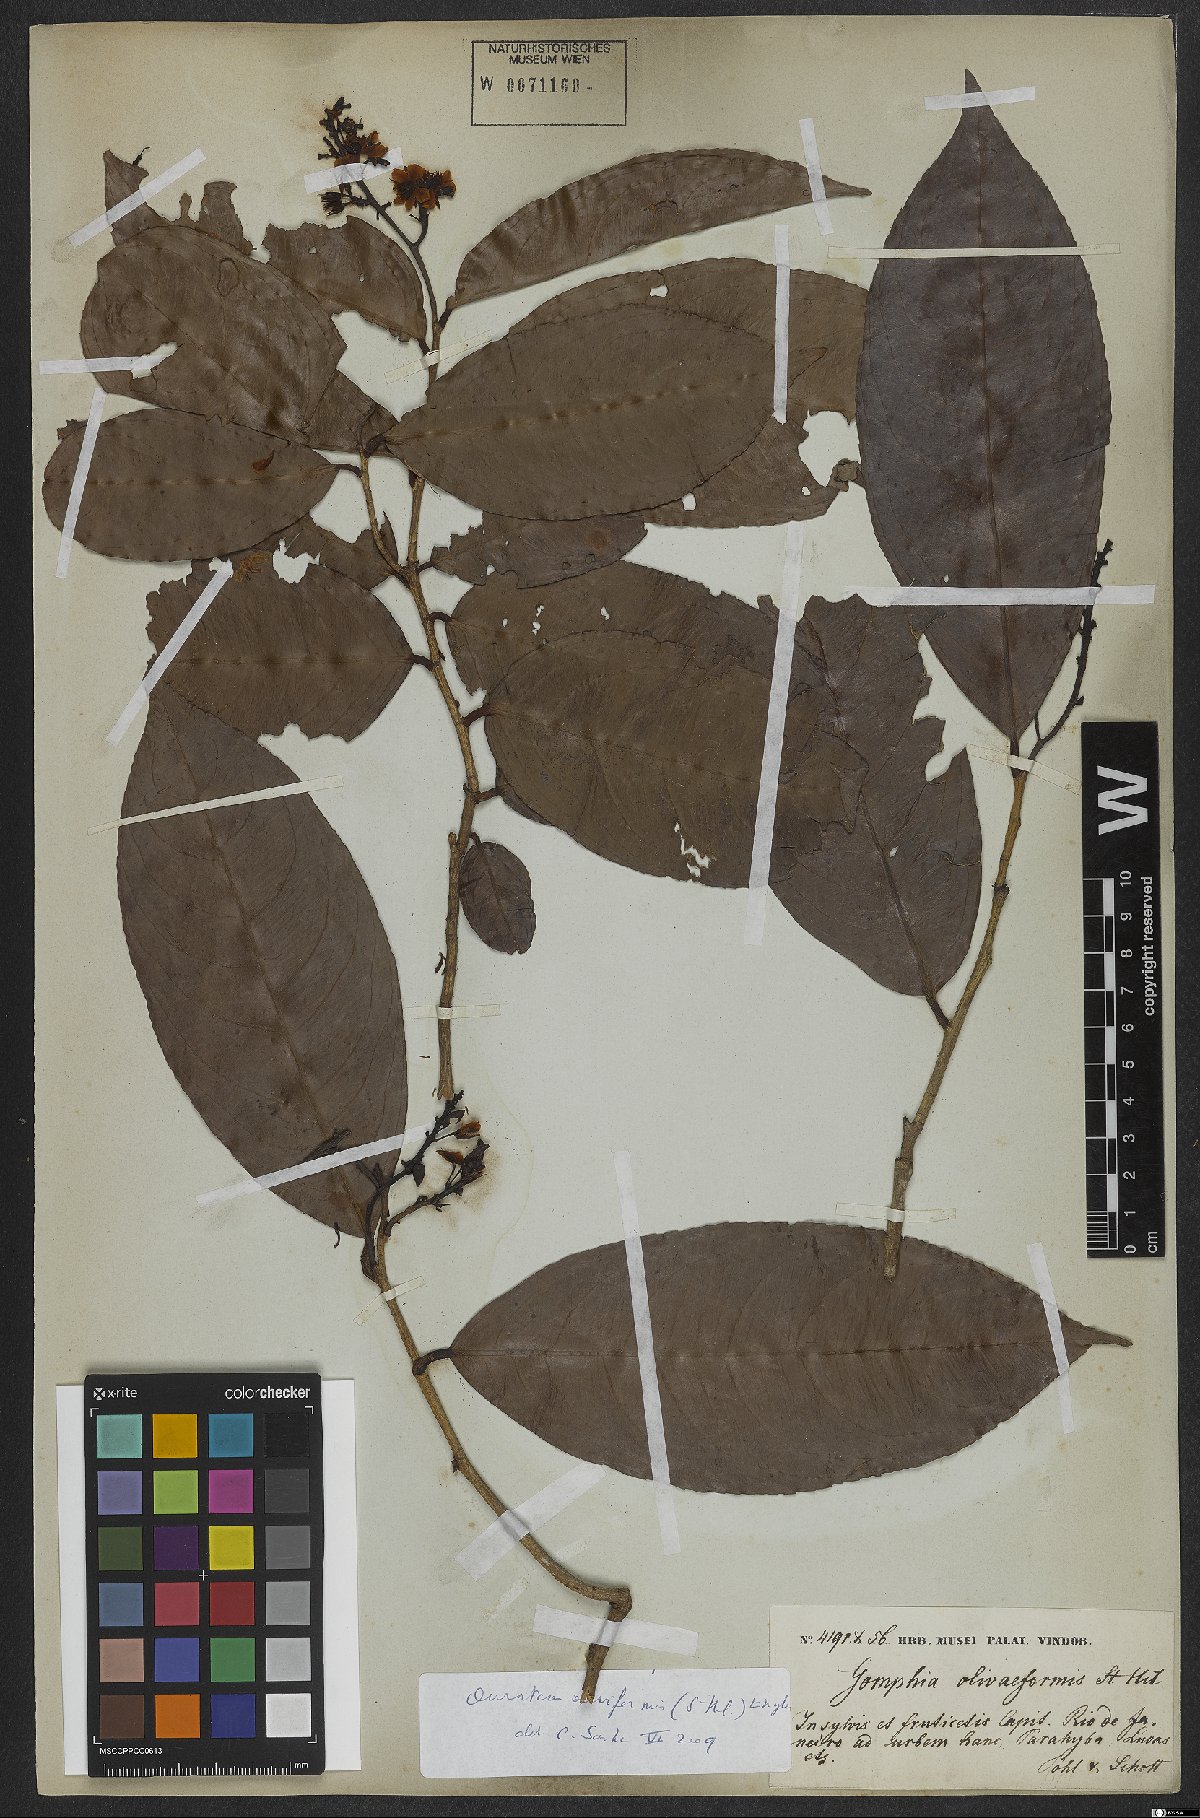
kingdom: Plantae
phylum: Tracheophyta
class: Magnoliopsida
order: Malpighiales
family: Ochnaceae
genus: Ouratea
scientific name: Ouratea oliviformis
